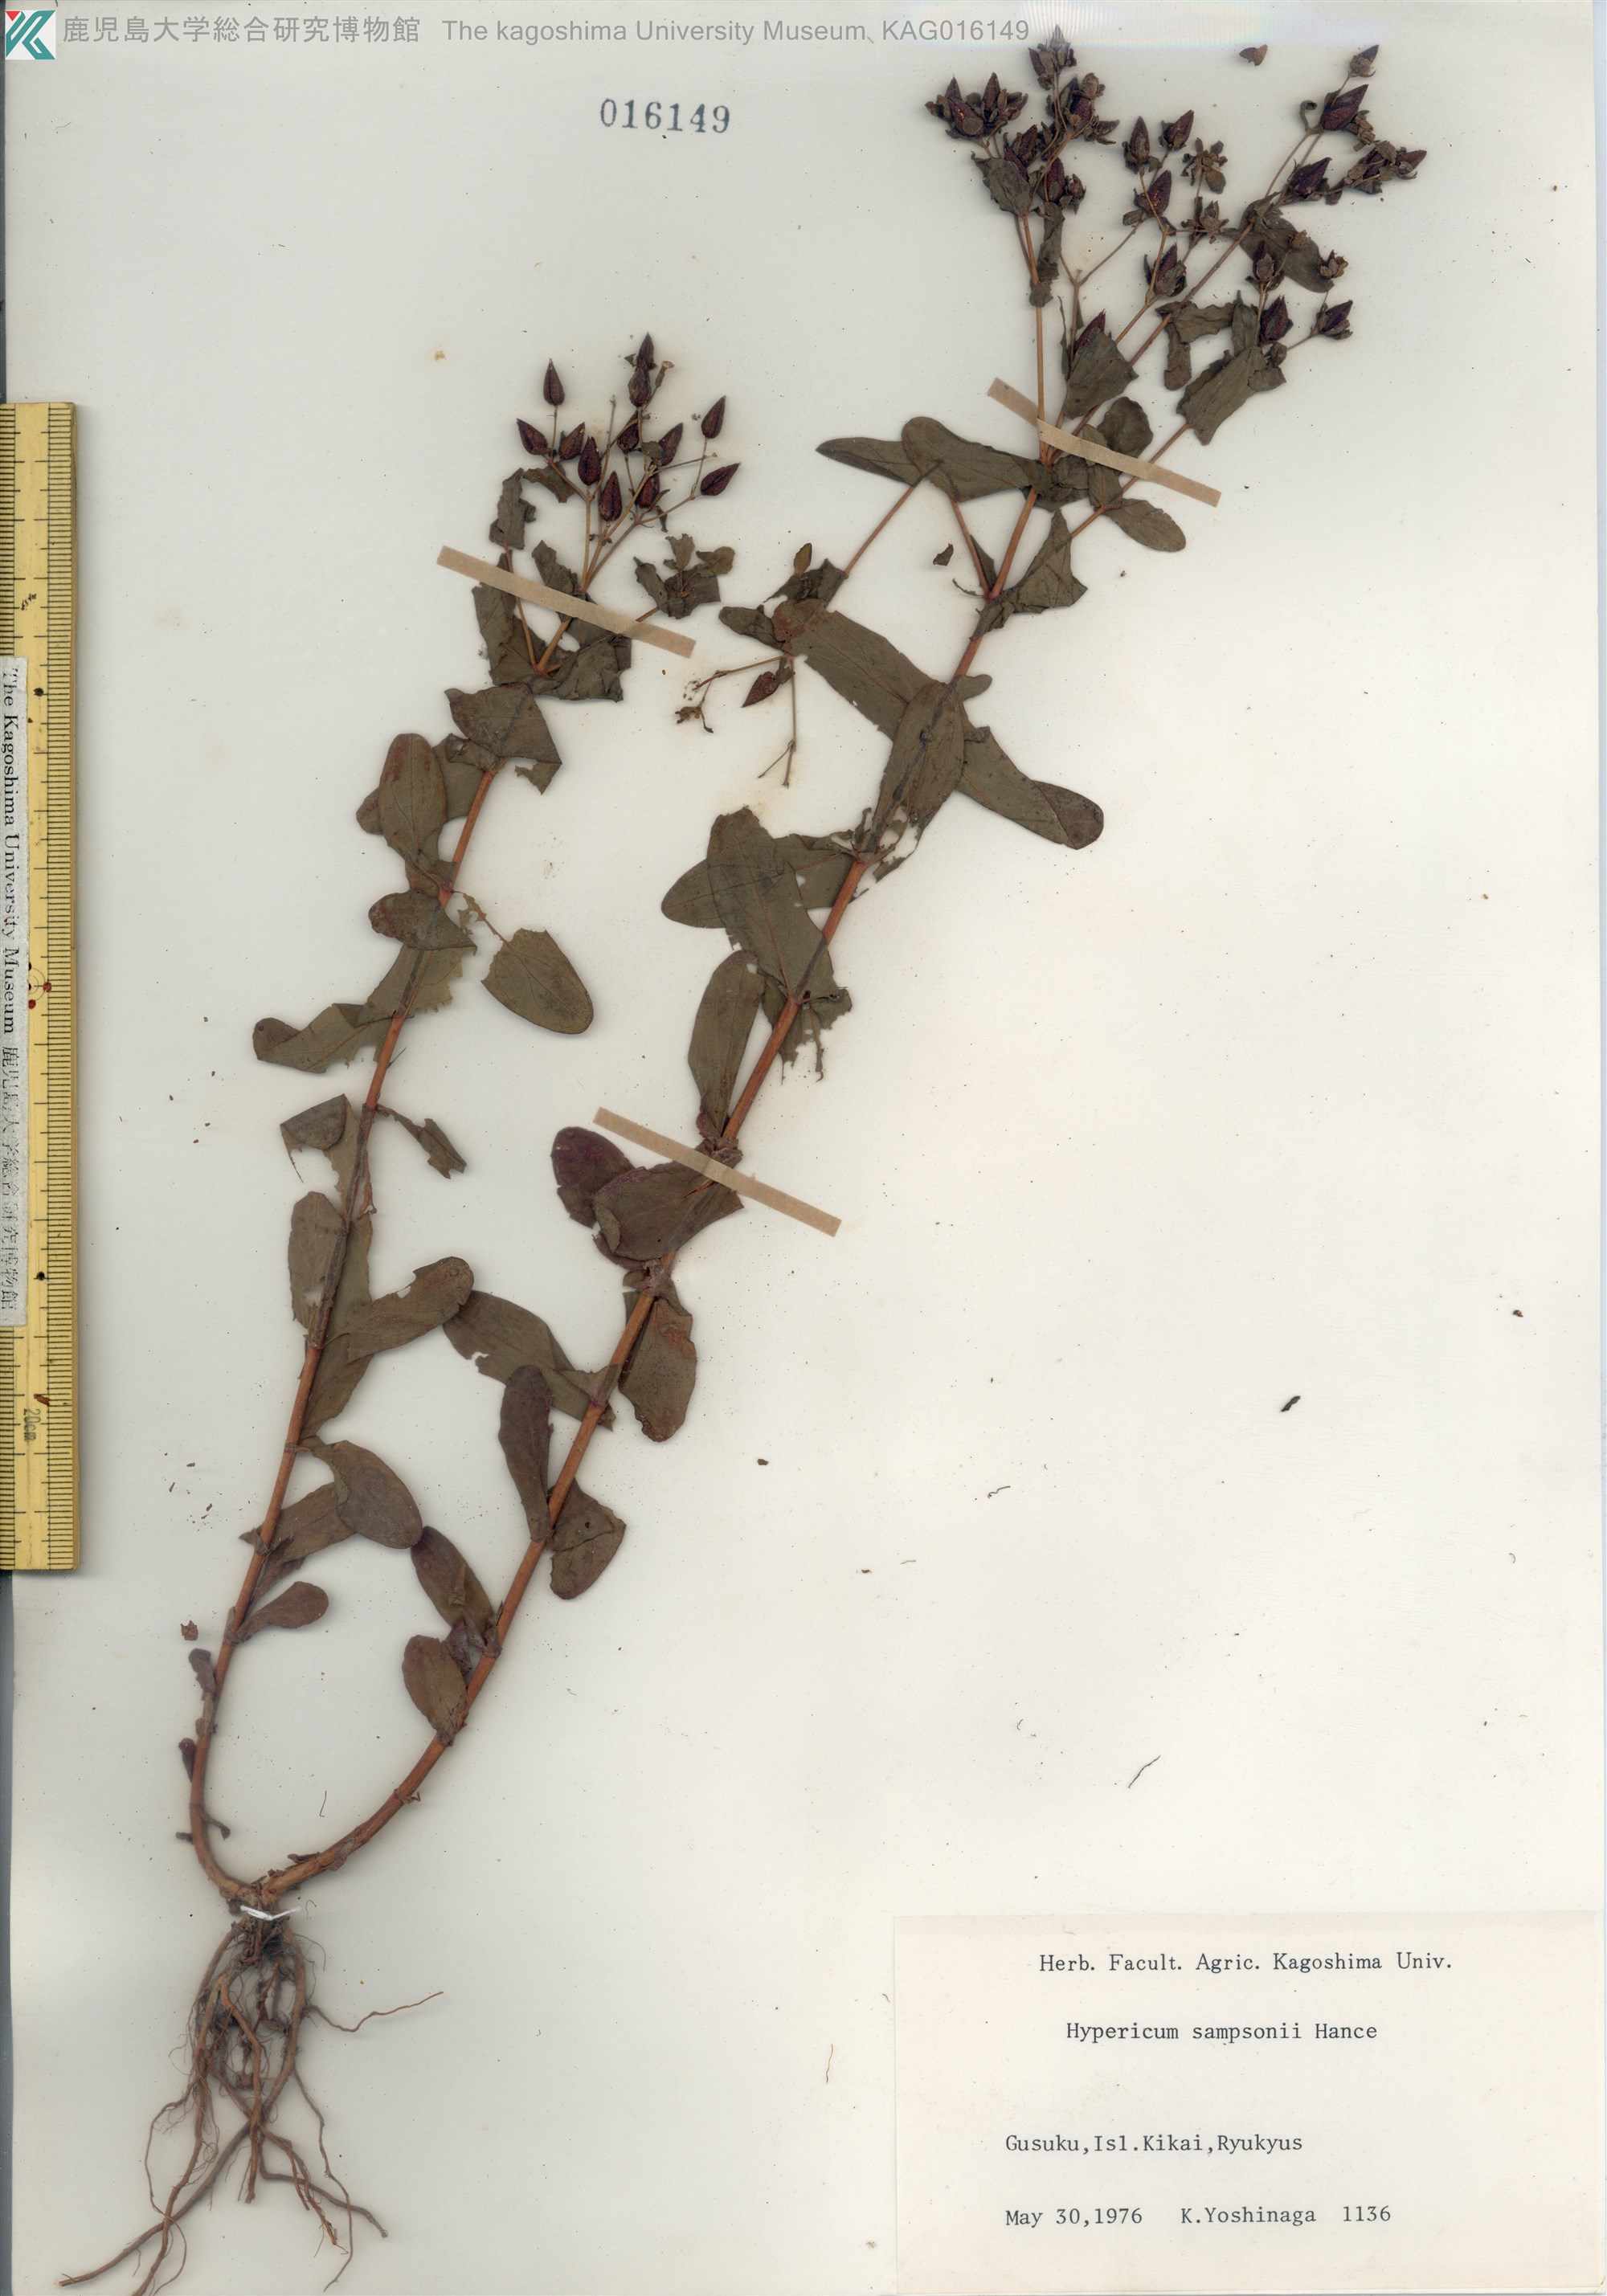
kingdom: Plantae
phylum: Tracheophyta
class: Magnoliopsida
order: Malpighiales
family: Hypericaceae
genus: Hypericum
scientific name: Hypericum sampsonii
